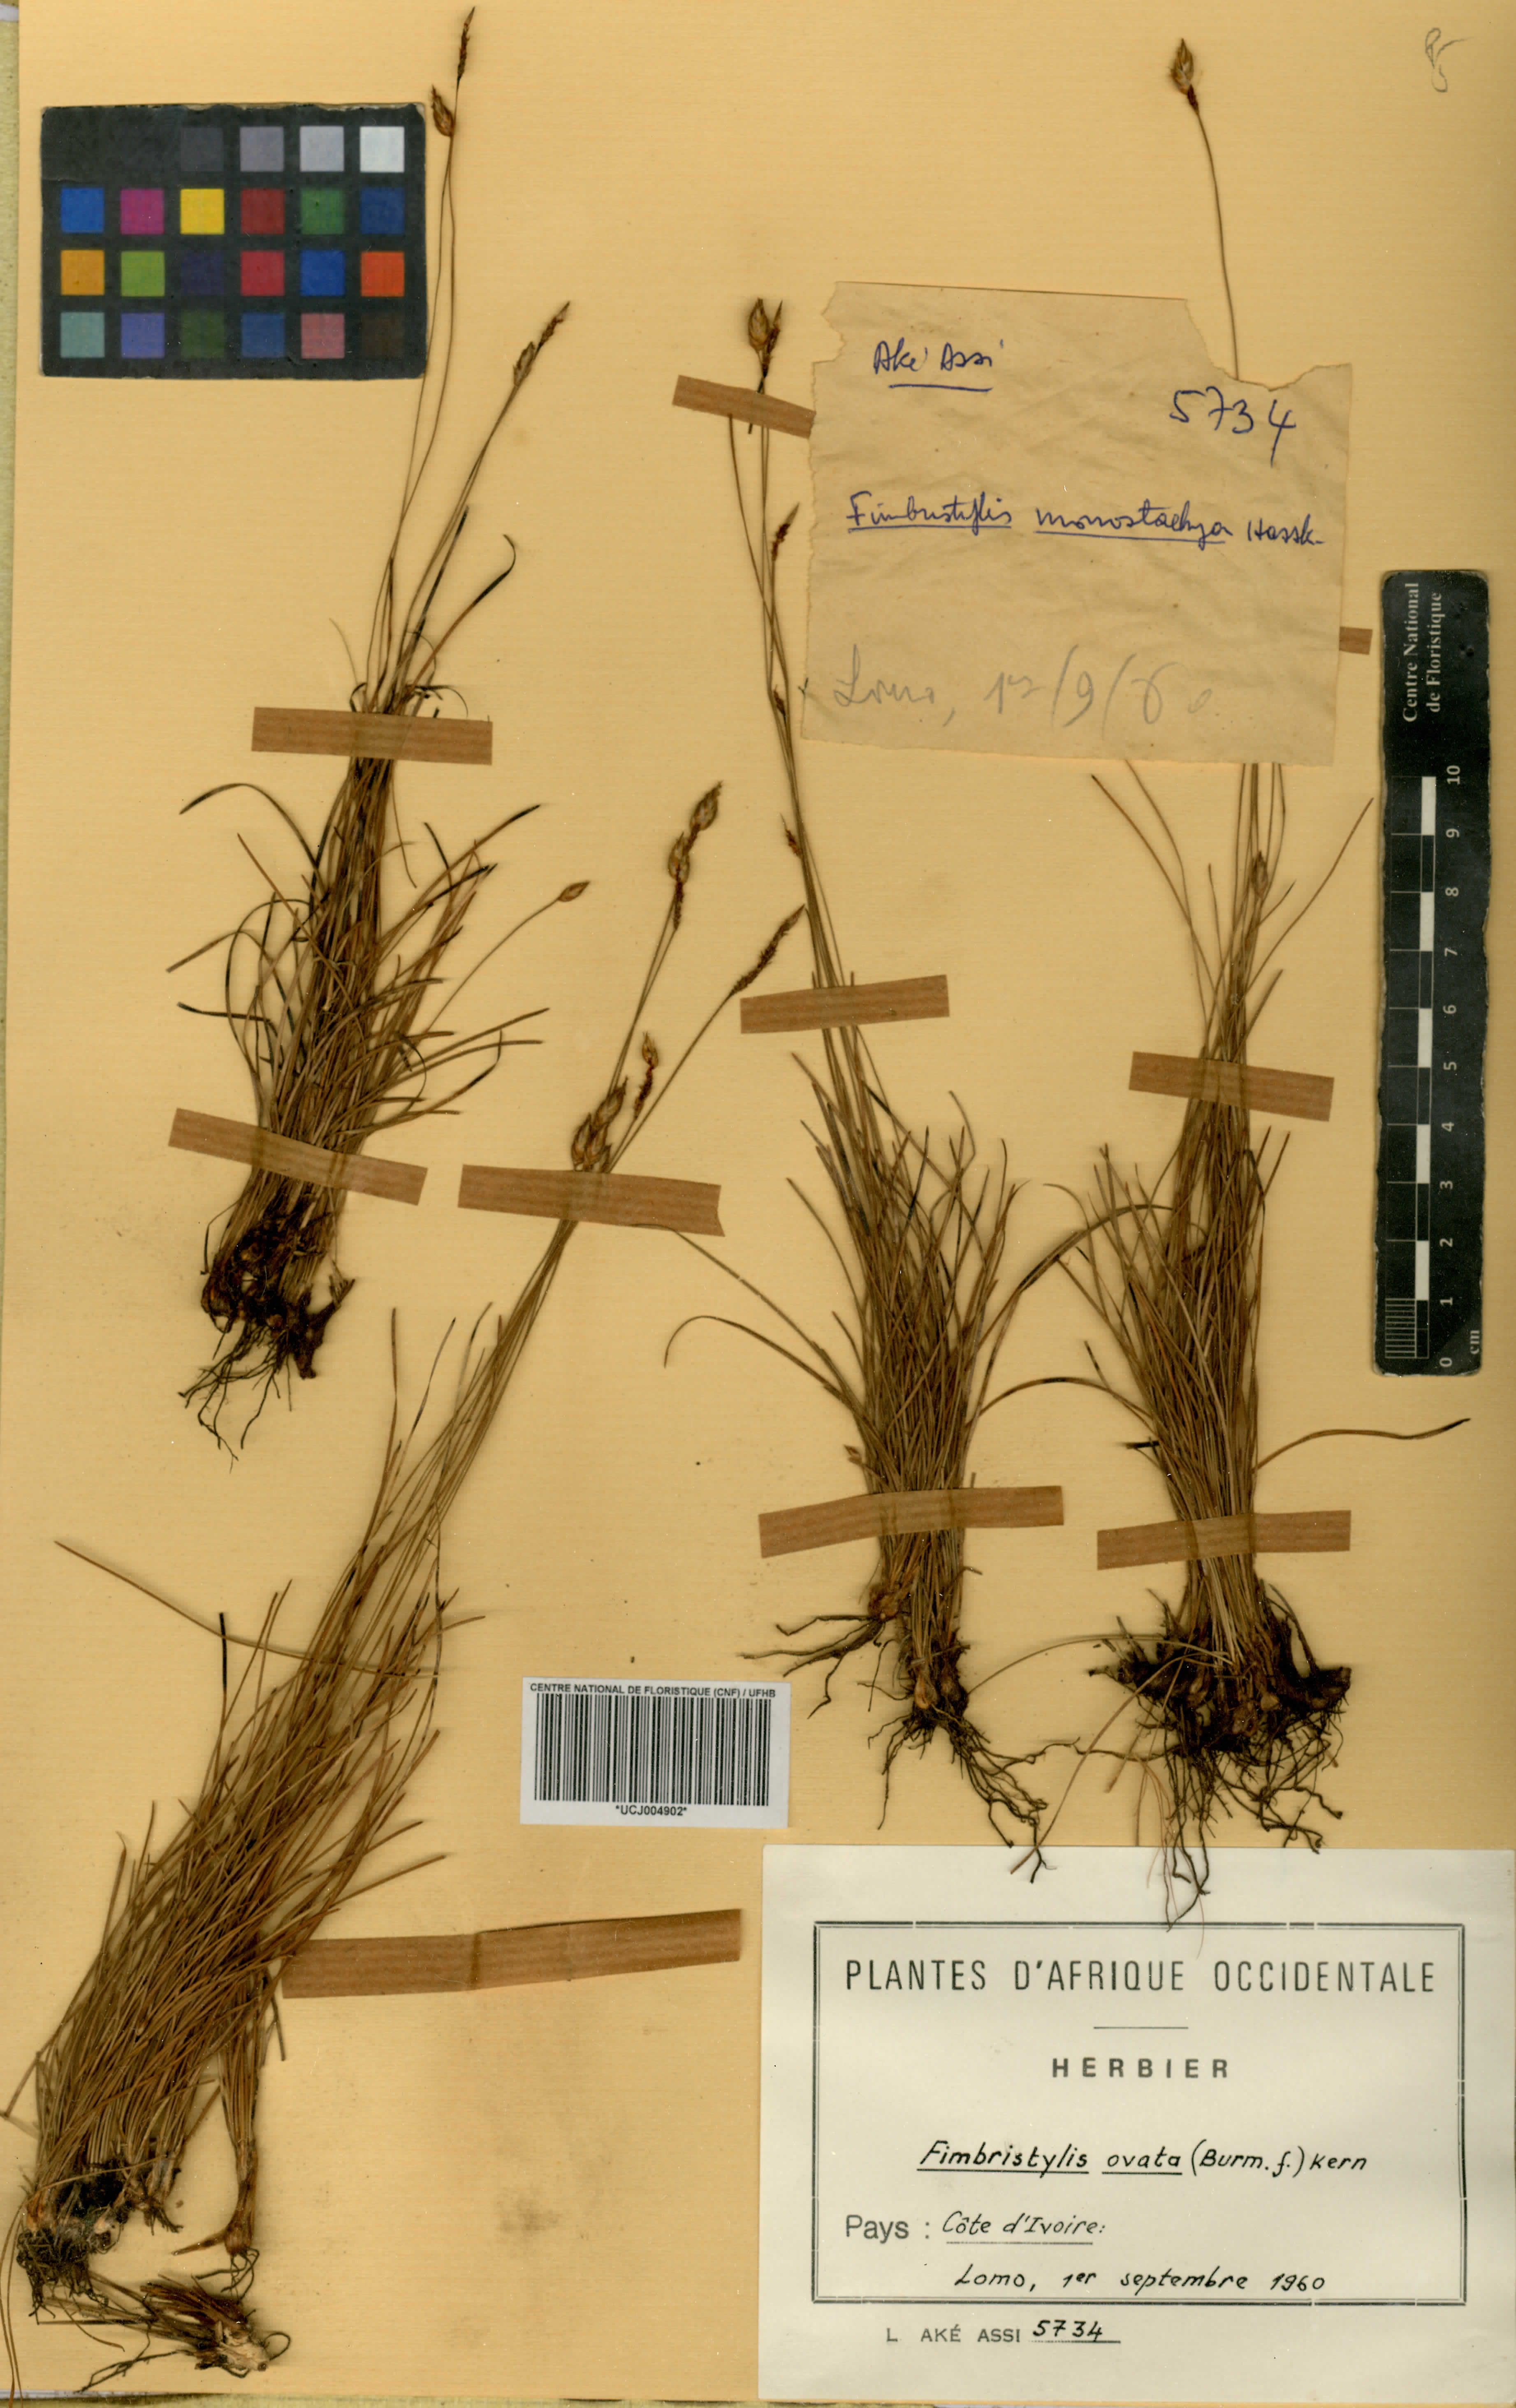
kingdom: Plantae
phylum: Tracheophyta
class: Liliopsida
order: Poales
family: Cyperaceae
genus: Abildgaardia
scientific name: Abildgaardia ovata
